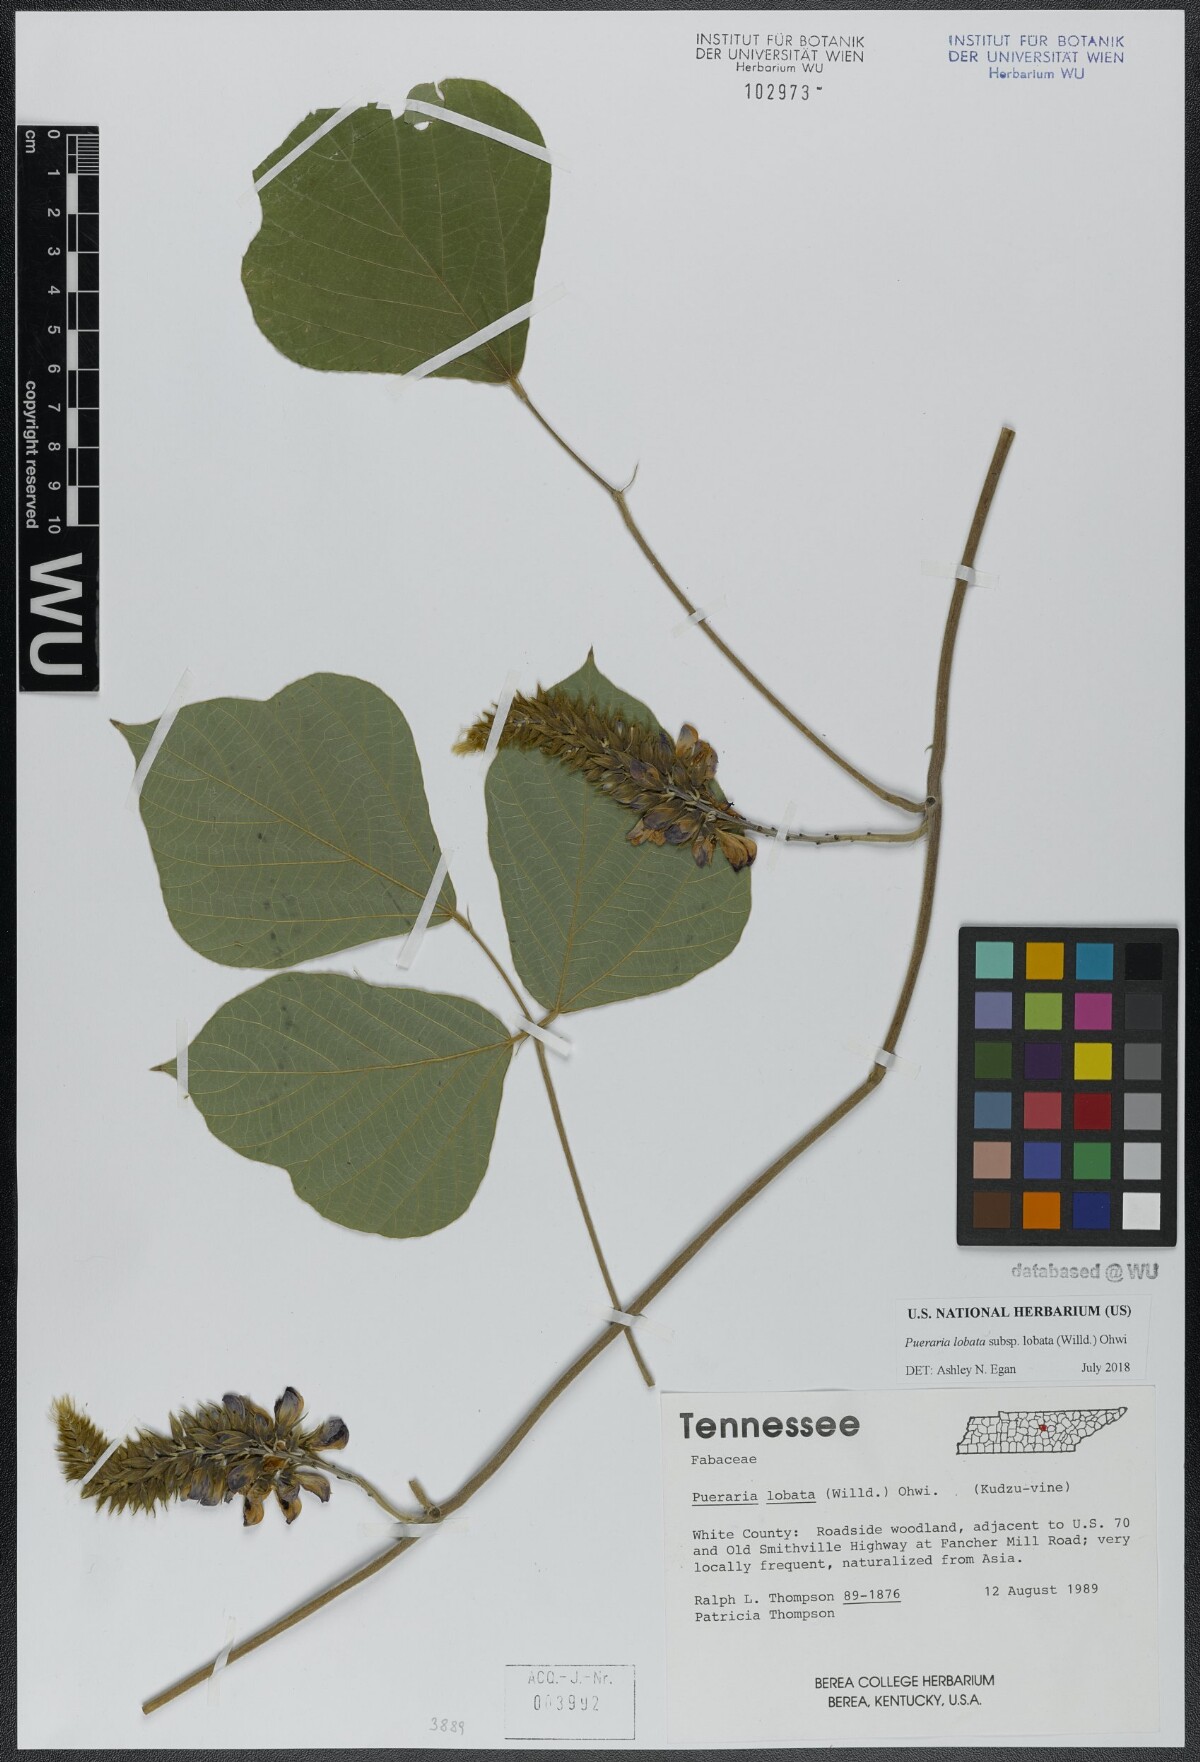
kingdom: Plantae
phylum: Tracheophyta
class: Magnoliopsida
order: Fabales
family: Fabaceae
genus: Pueraria
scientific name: Pueraria montana
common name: Kudzu
